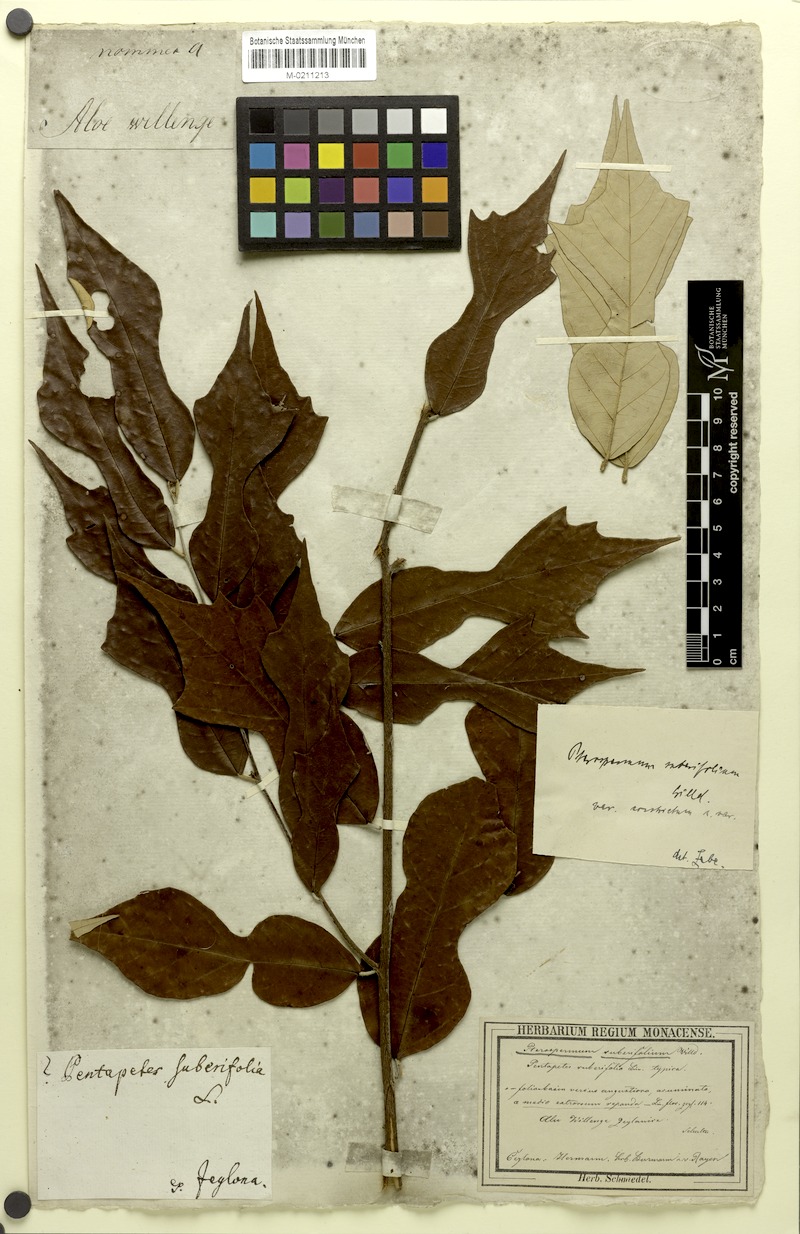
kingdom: Plantae
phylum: Tracheophyta
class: Magnoliopsida
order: Malvales
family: Malvaceae
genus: Pterospermum
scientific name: Pterospermum suberifolium
